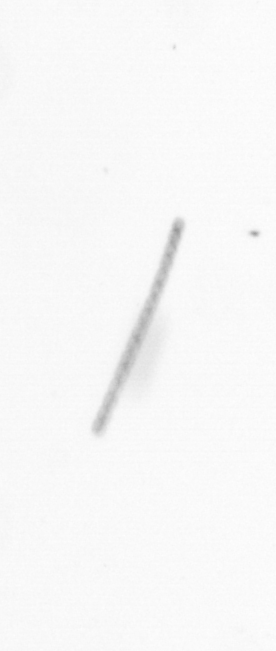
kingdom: Chromista
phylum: Ochrophyta
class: Bacillariophyceae
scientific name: Bacillariophyceae
